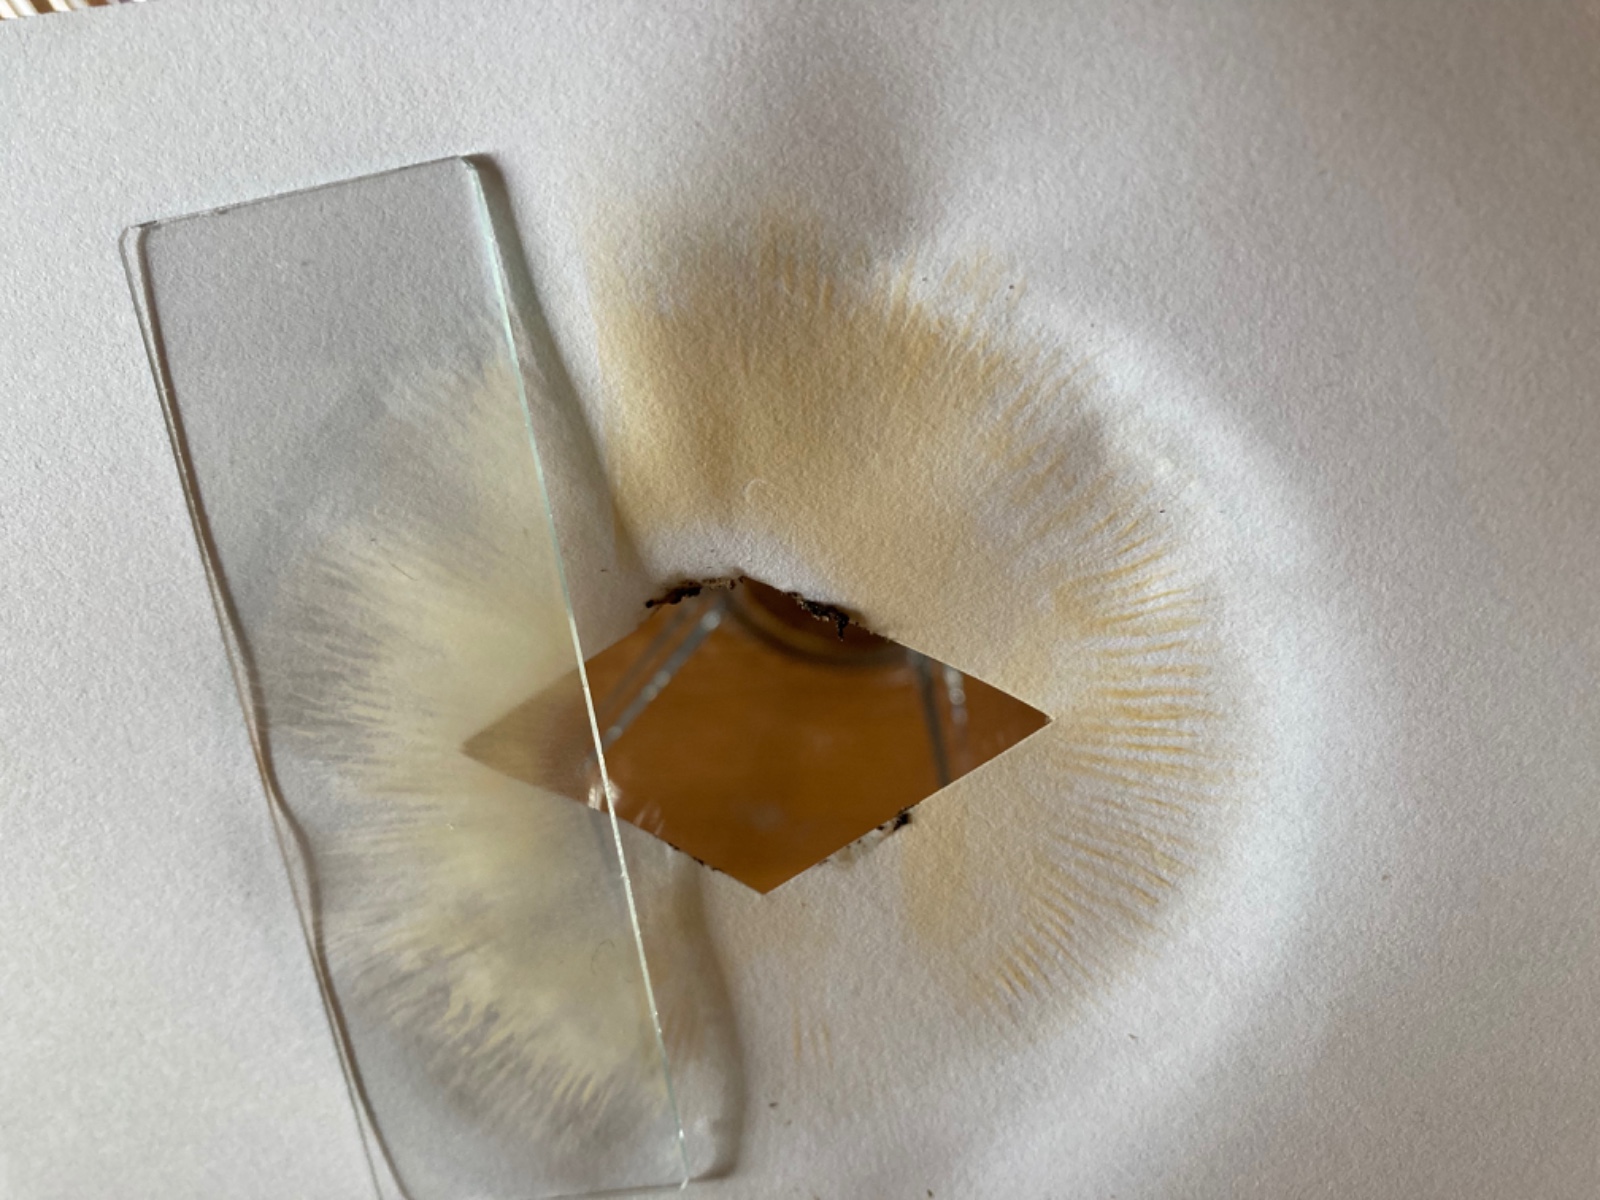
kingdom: Fungi
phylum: Basidiomycota
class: Agaricomycetes
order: Russulales
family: Russulaceae
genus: Russula
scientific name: Russula pseudointegra
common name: cinnoberrød skørhat
